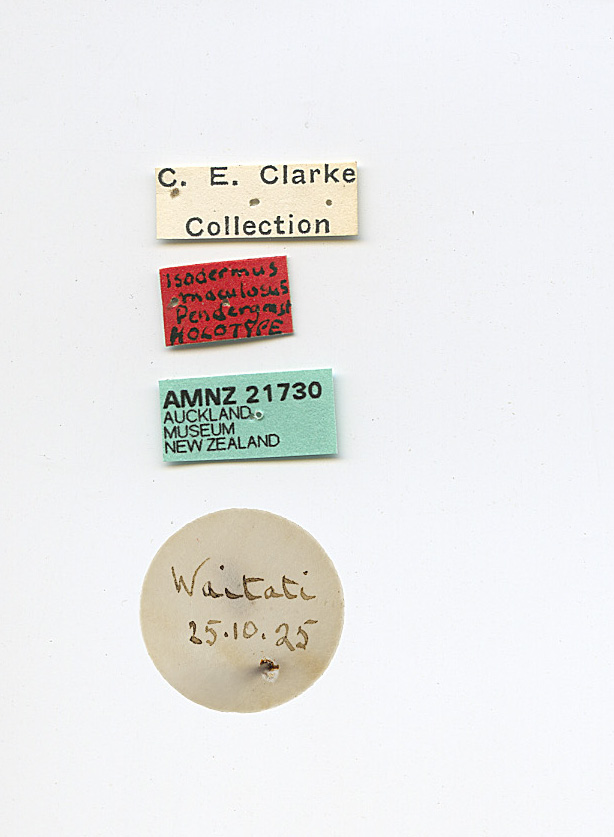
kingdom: Animalia
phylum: Arthropoda
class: Insecta
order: Hemiptera
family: Aradidae
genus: Isodermus
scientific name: Isodermus
